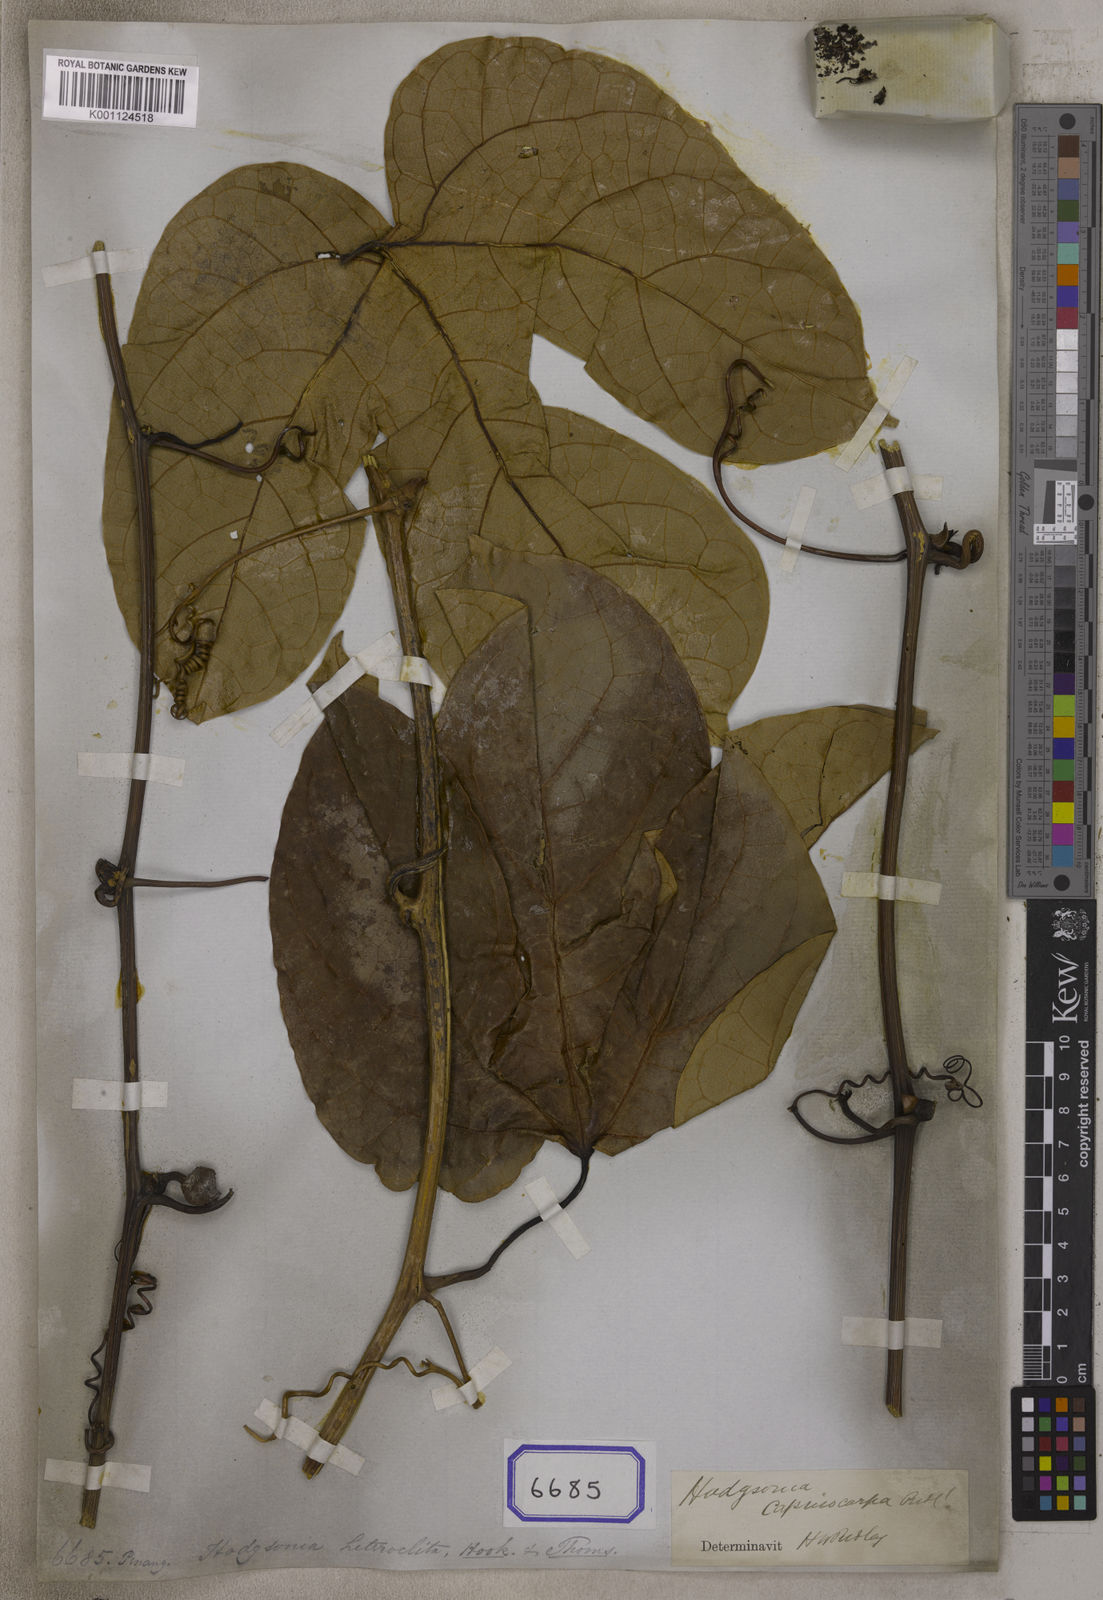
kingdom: Plantae
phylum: Tracheophyta
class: Magnoliopsida
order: Cucurbitales
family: Cucurbitaceae
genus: Trichosanthes
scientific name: Trichosanthes
